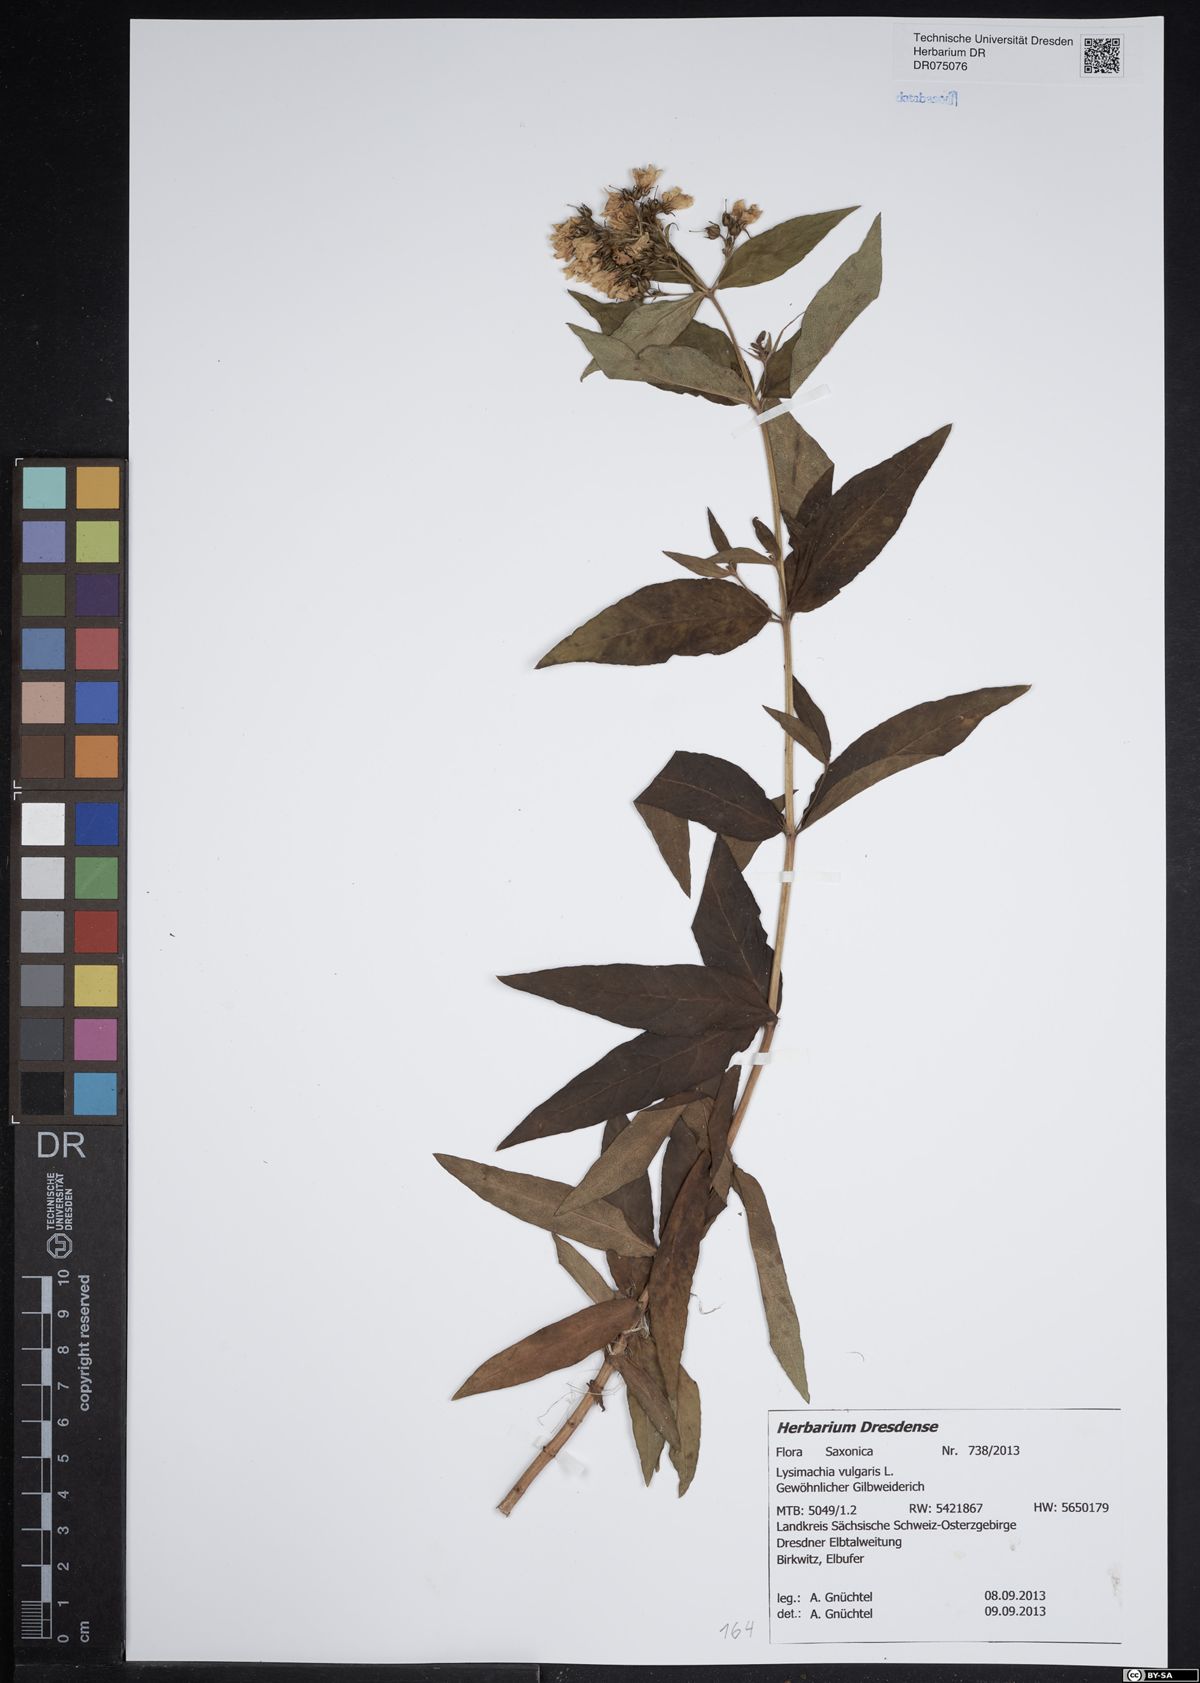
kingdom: Plantae
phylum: Tracheophyta
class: Magnoliopsida
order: Ericales
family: Primulaceae
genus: Lysimachia
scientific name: Lysimachia vulgaris
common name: Yellow loosestrife
